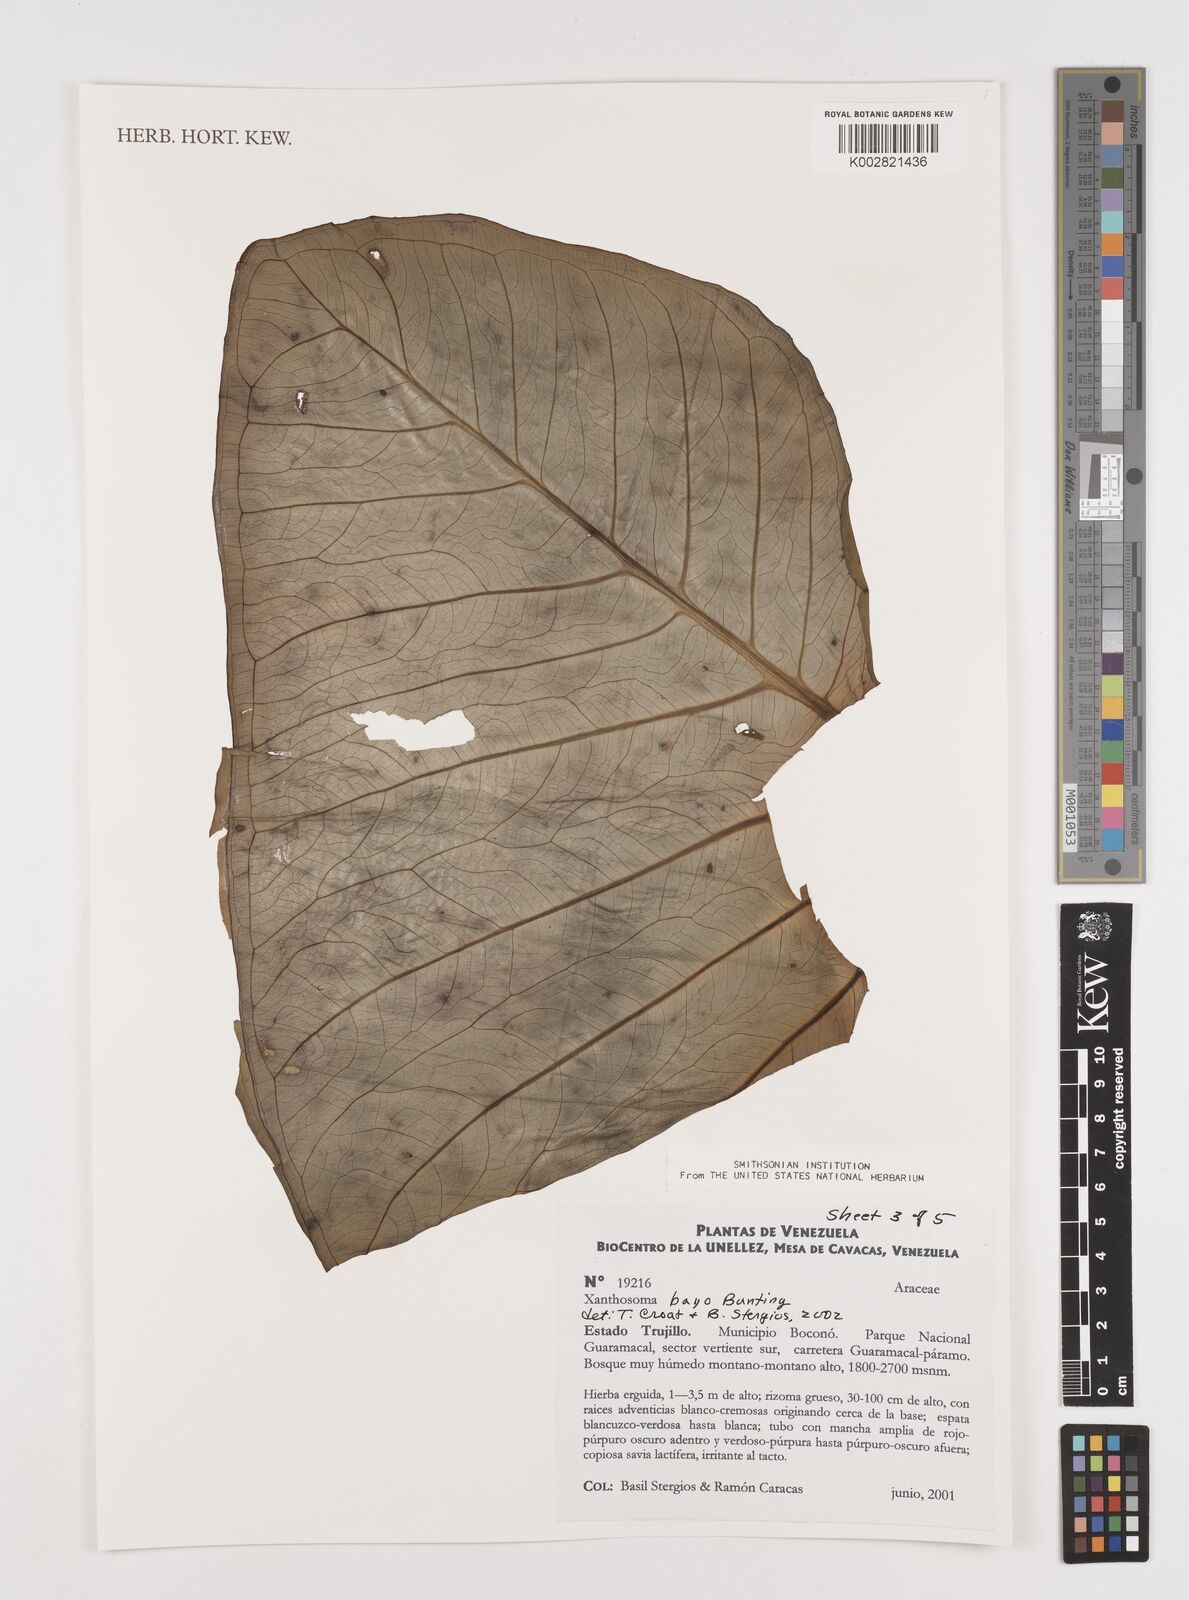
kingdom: Plantae
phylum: Tracheophyta
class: Liliopsida
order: Alismatales
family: Araceae
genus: Xanthosoma
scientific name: Xanthosoma bayo
